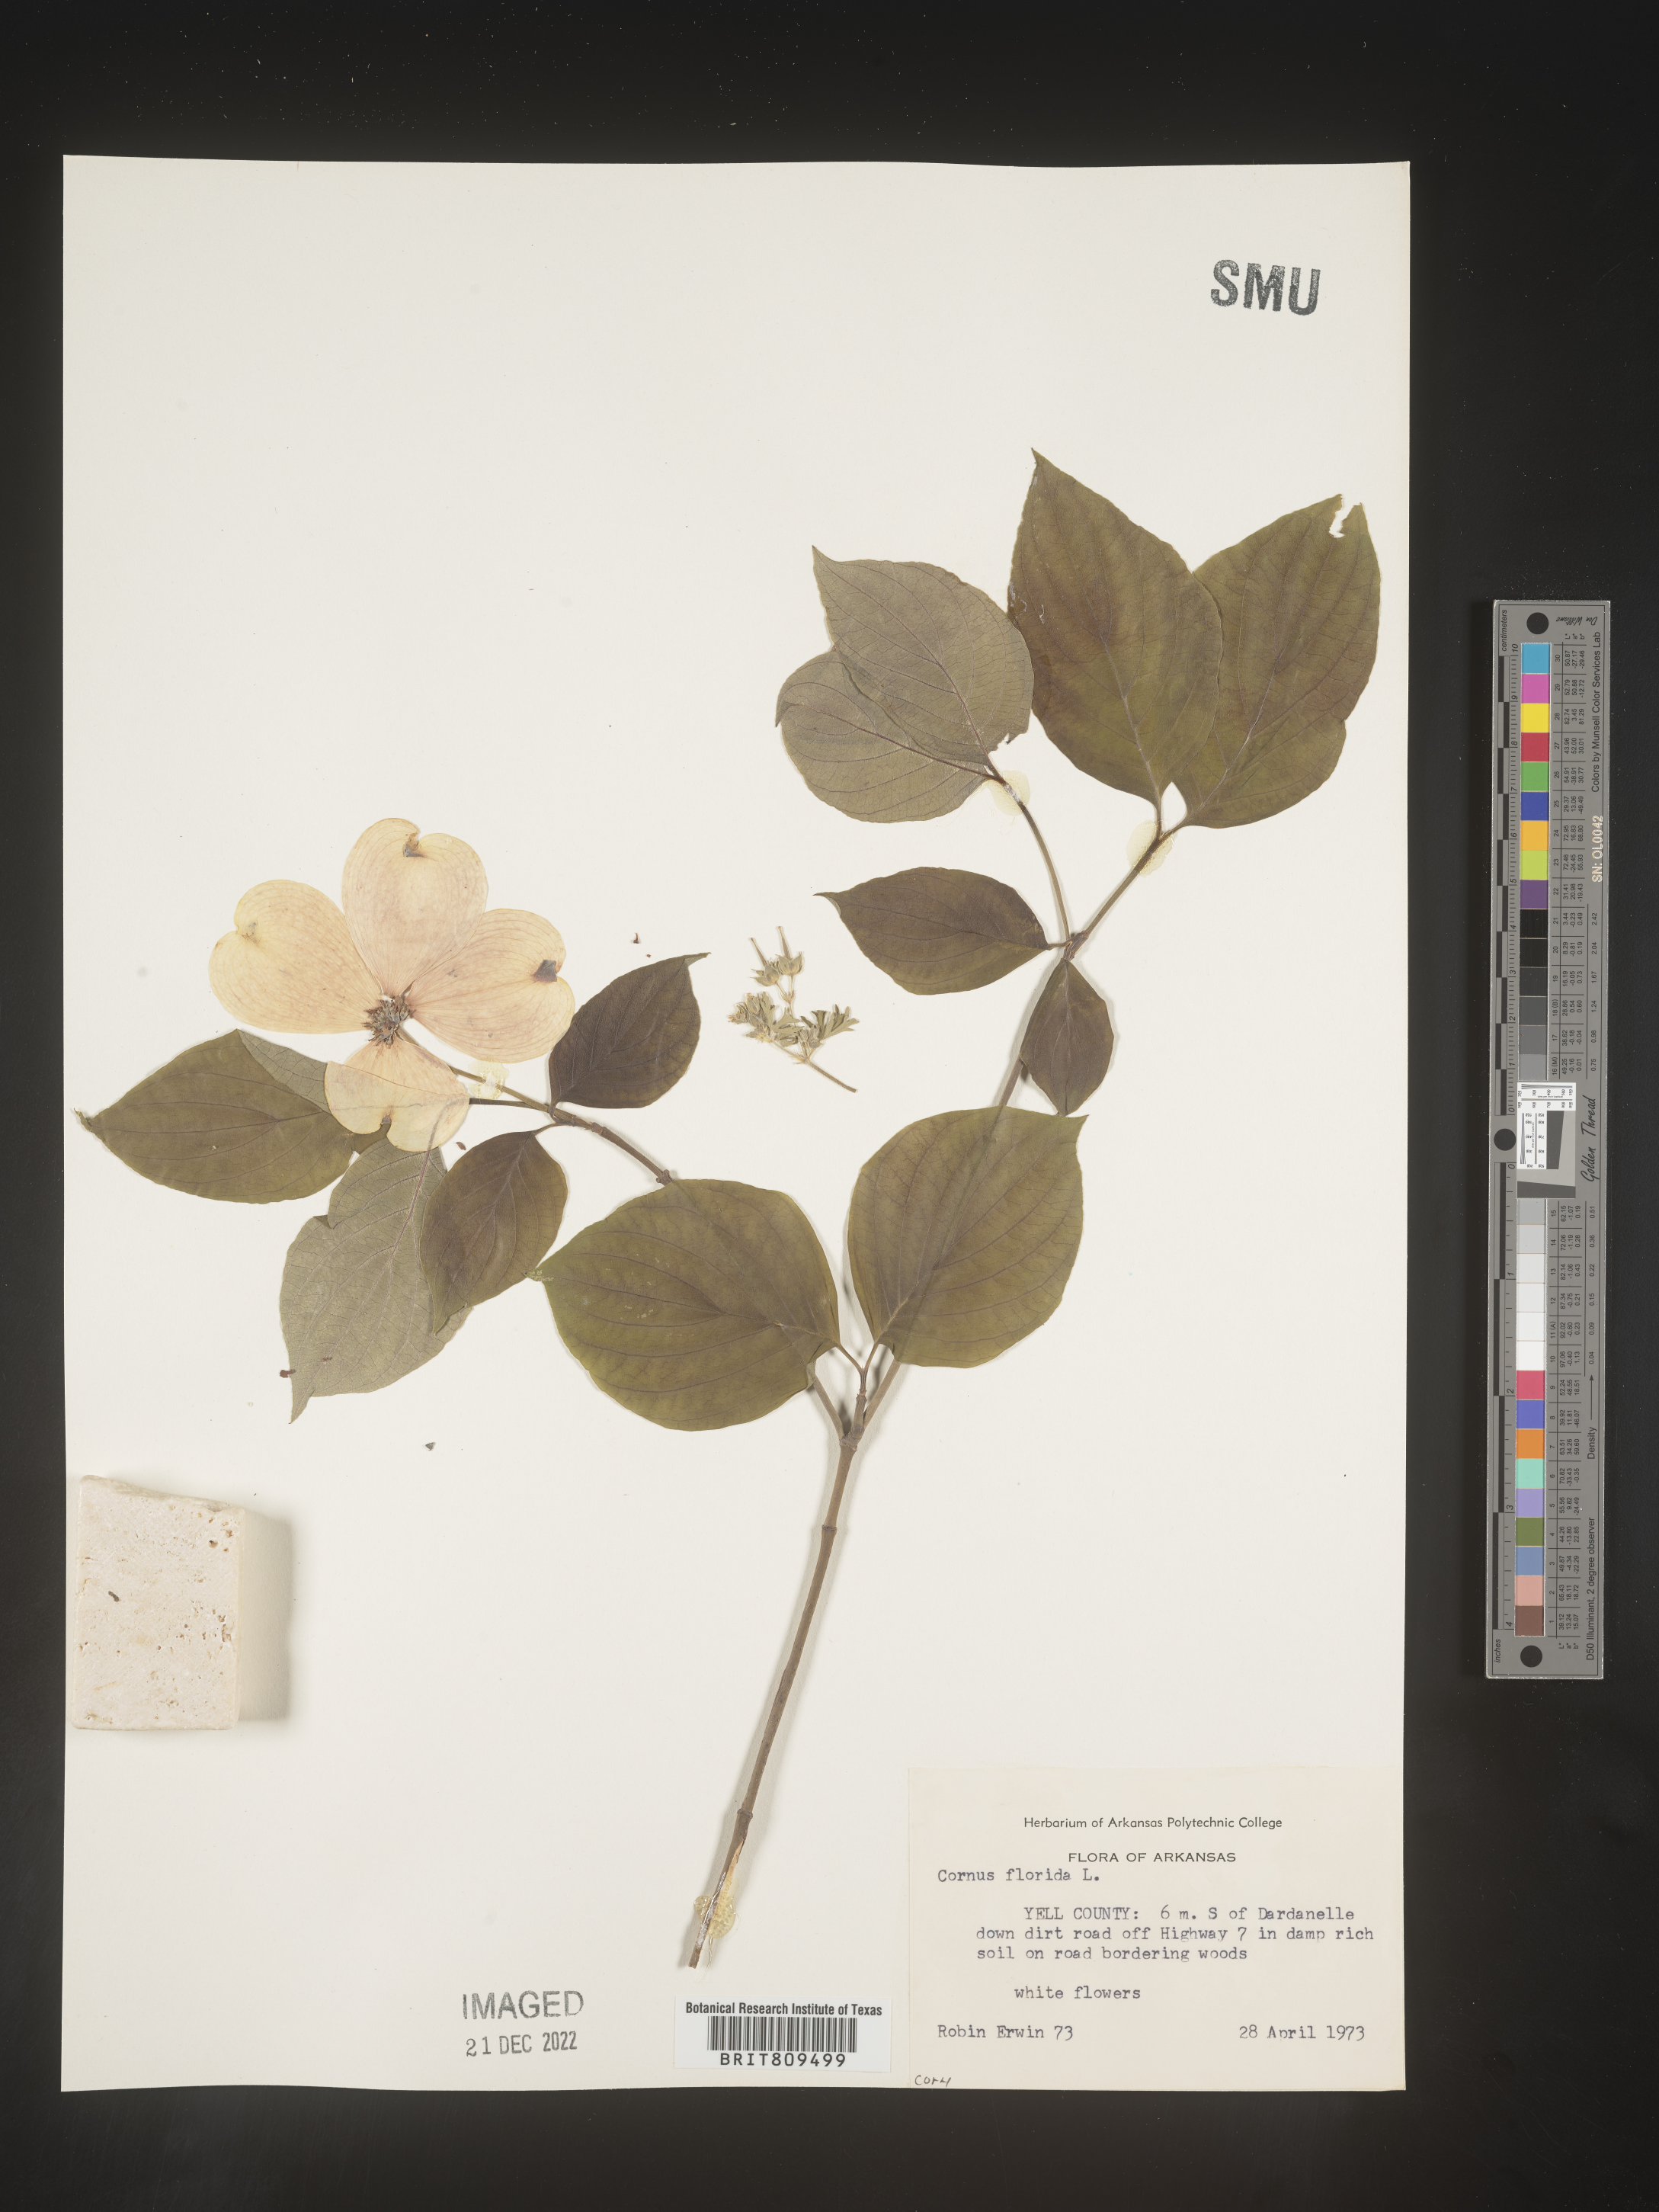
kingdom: Plantae
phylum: Tracheophyta
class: Magnoliopsida
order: Cornales
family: Cornaceae
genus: Cornus
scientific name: Cornus florida
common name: Flowering dogwood
